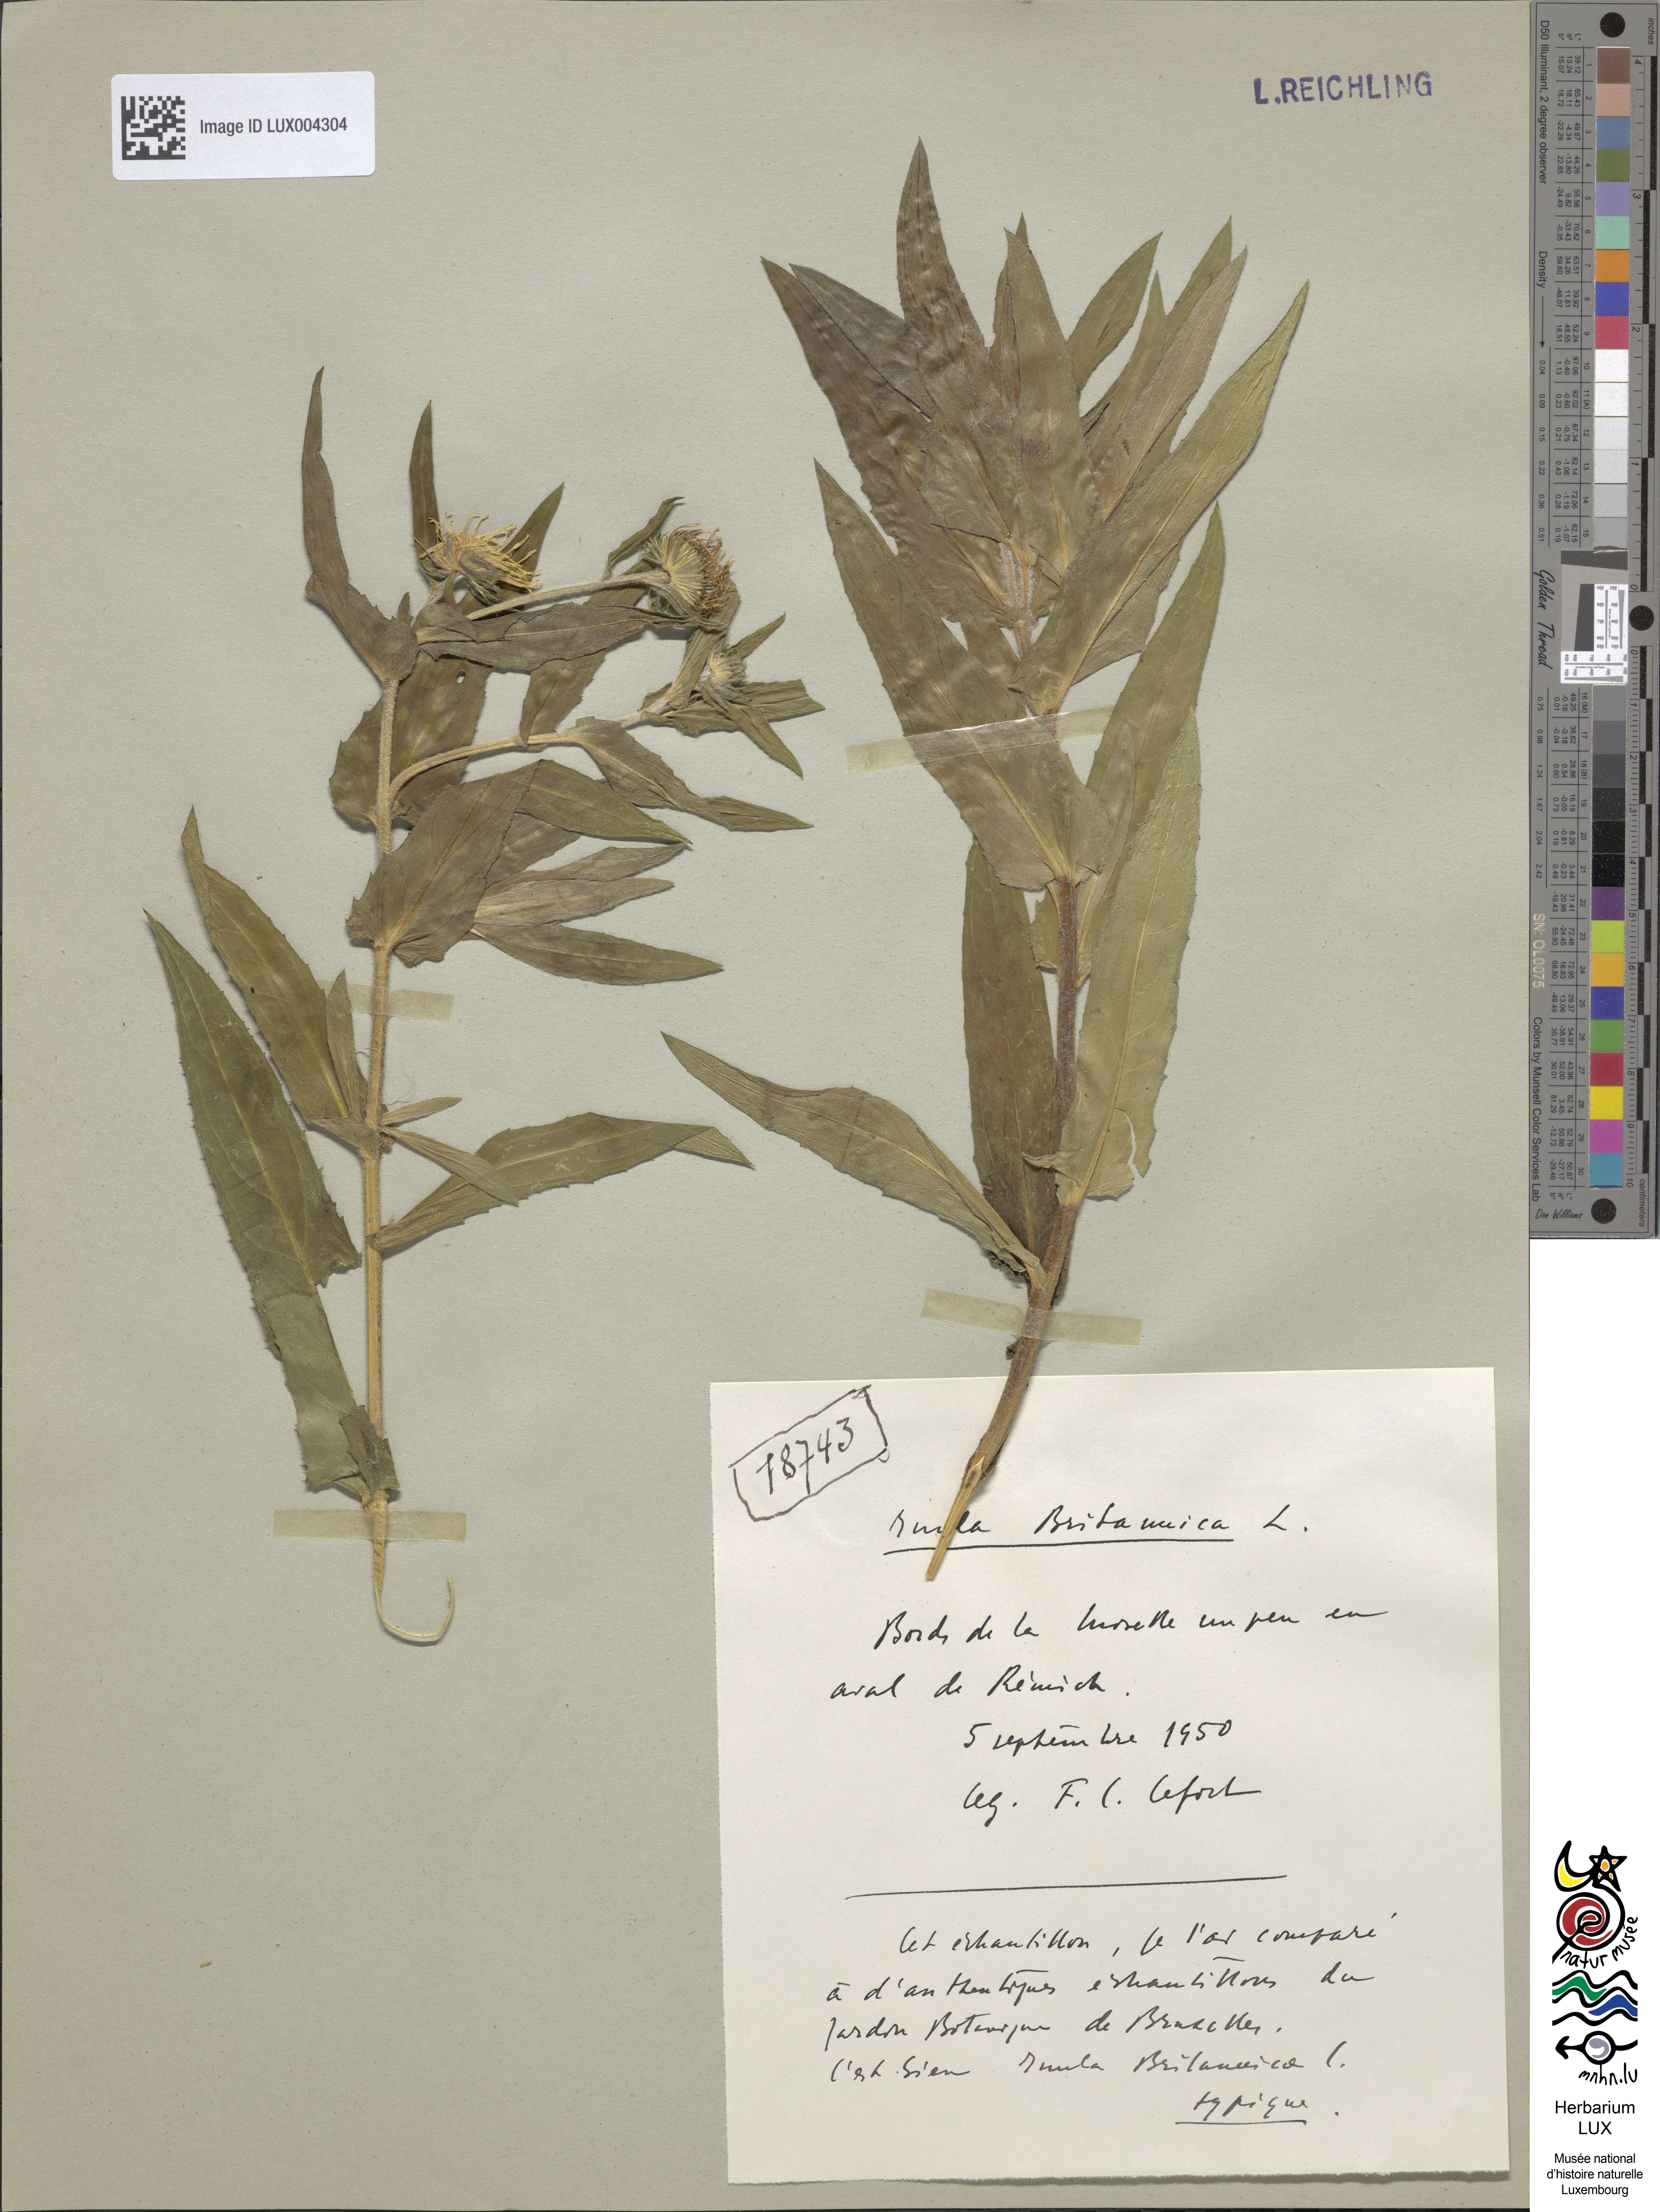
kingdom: Plantae
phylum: Tracheophyta
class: Magnoliopsida
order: Asterales
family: Asteraceae
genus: Pentanema
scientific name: Pentanema britannicum
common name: British elecampane
